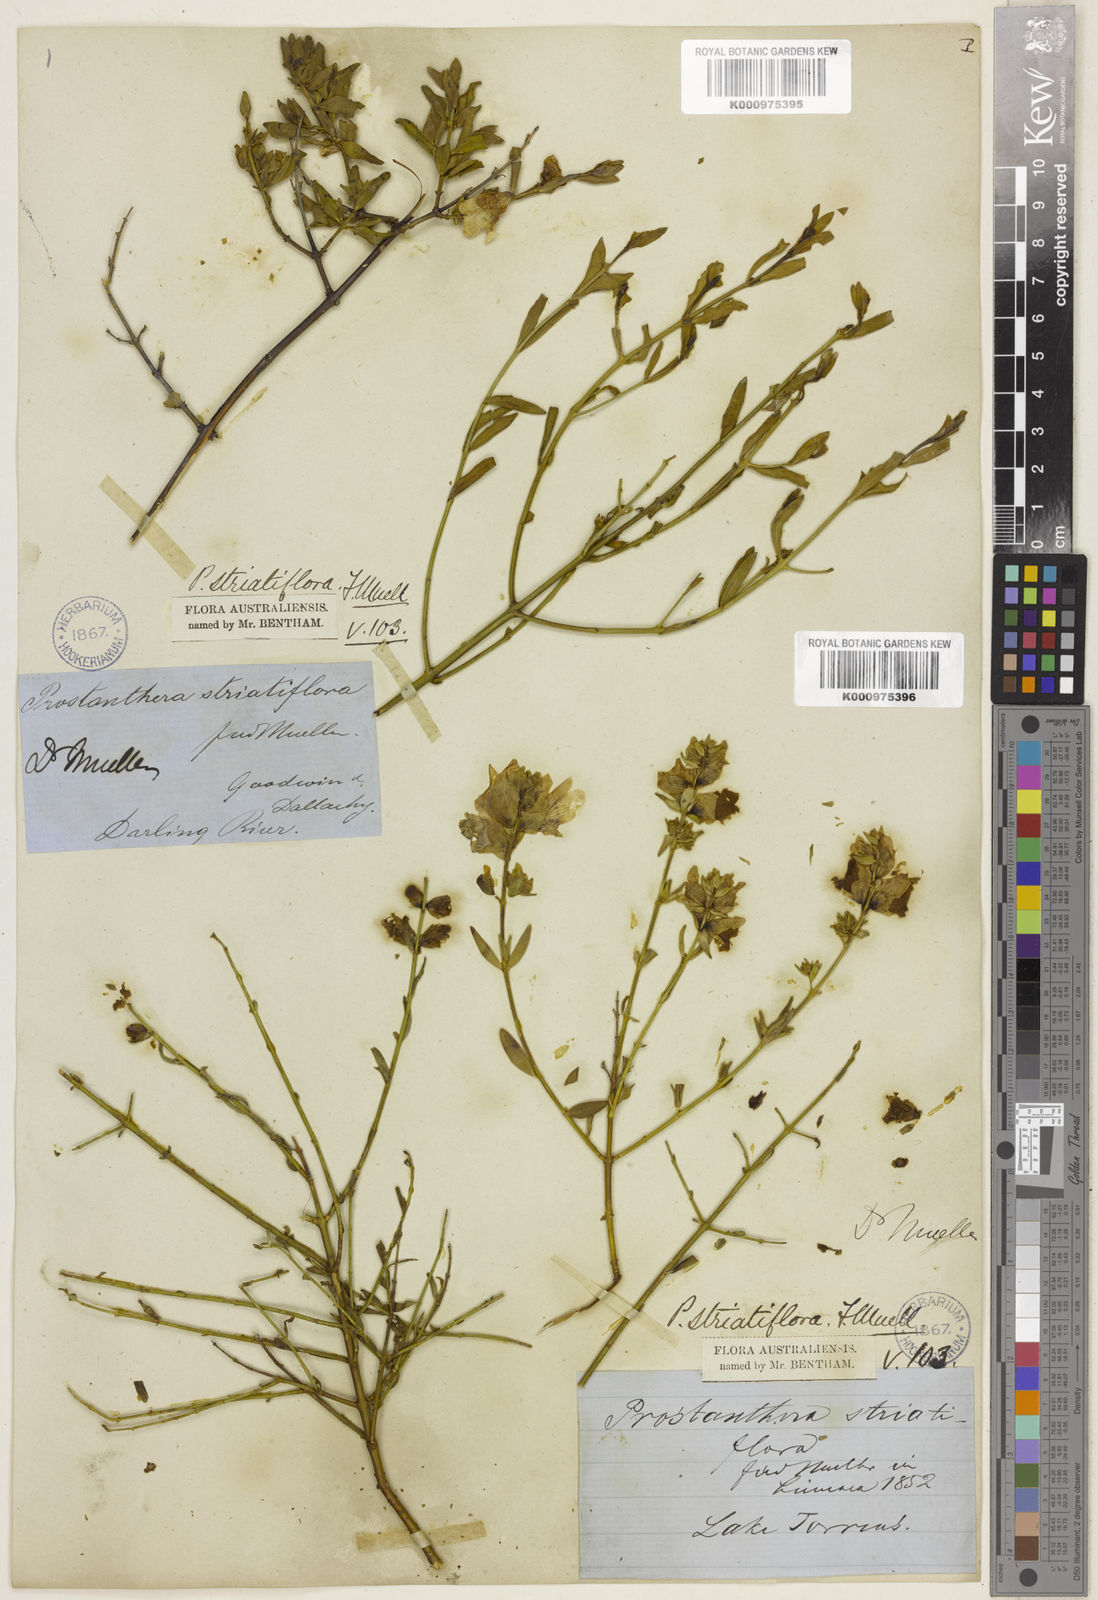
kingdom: Plantae
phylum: Tracheophyta
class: Magnoliopsida
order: Lamiales
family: Lamiaceae
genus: Prostanthera
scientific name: Prostanthera striatiflora
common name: Jockey's-cap
